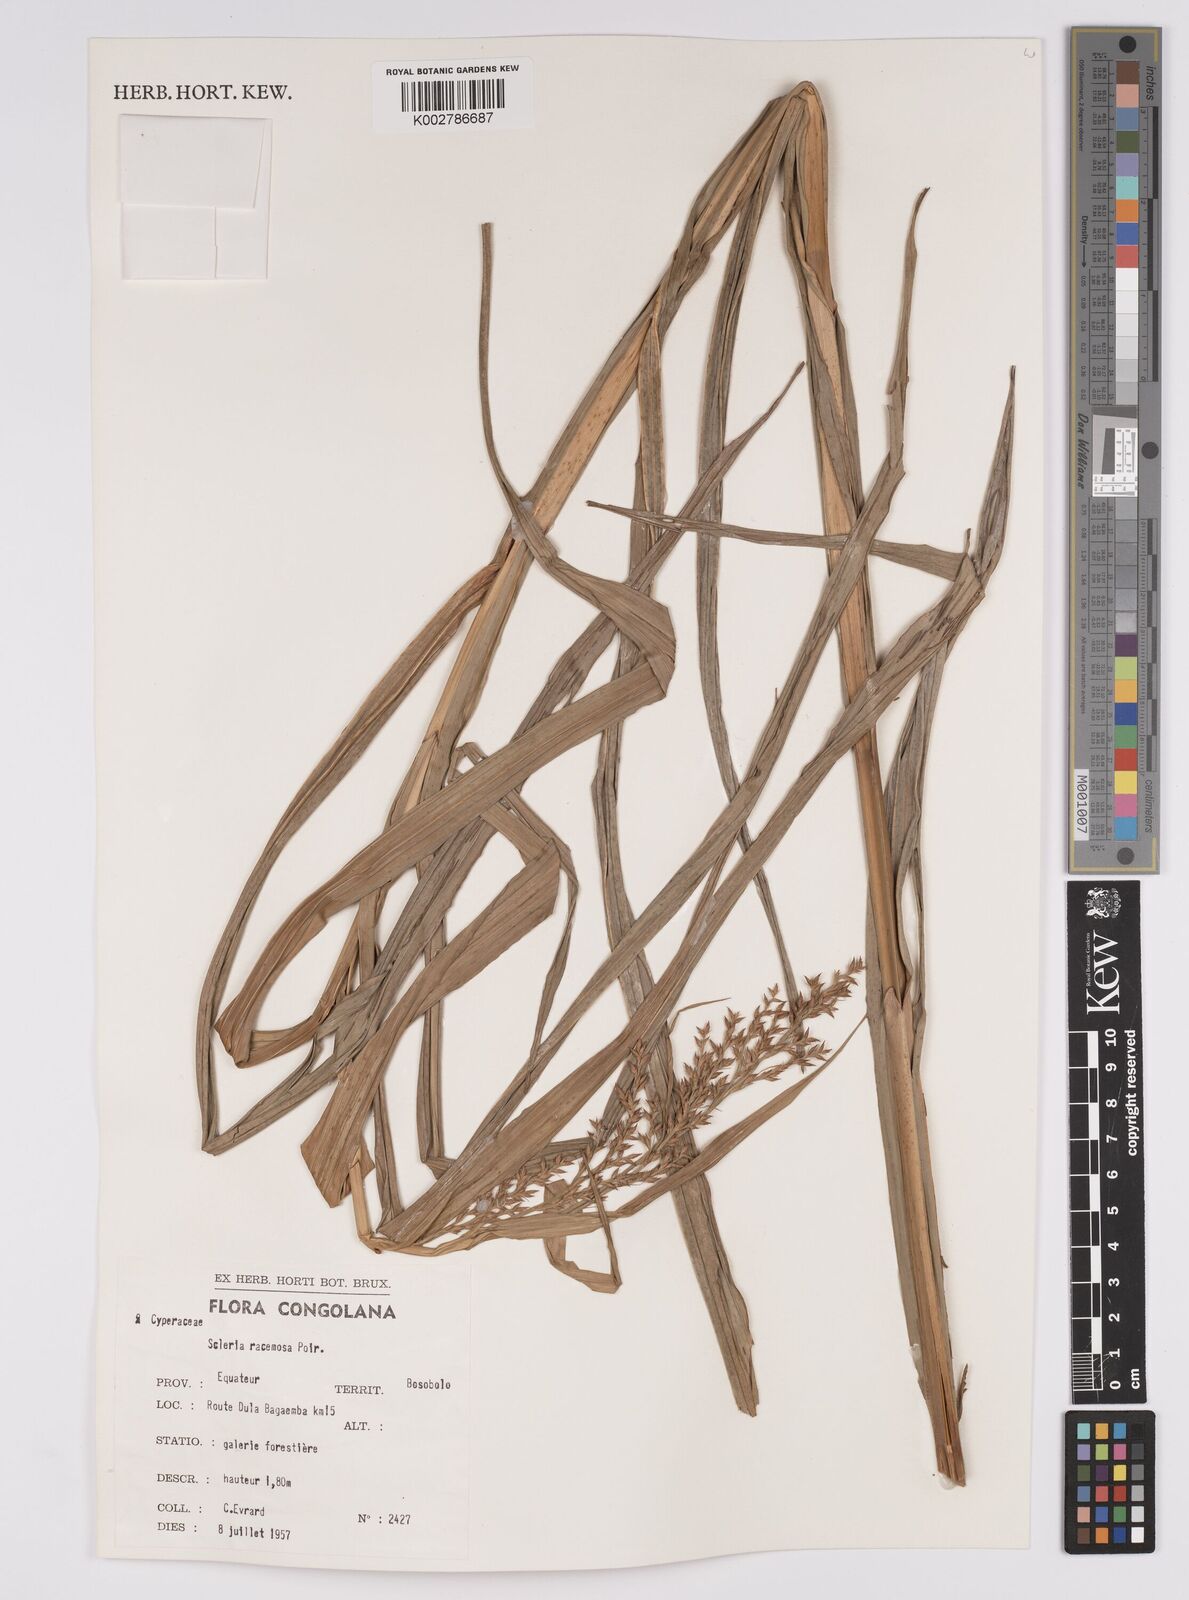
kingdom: Plantae
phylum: Tracheophyta
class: Liliopsida
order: Poales
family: Cyperaceae
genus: Scleria
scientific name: Scleria racemosa
